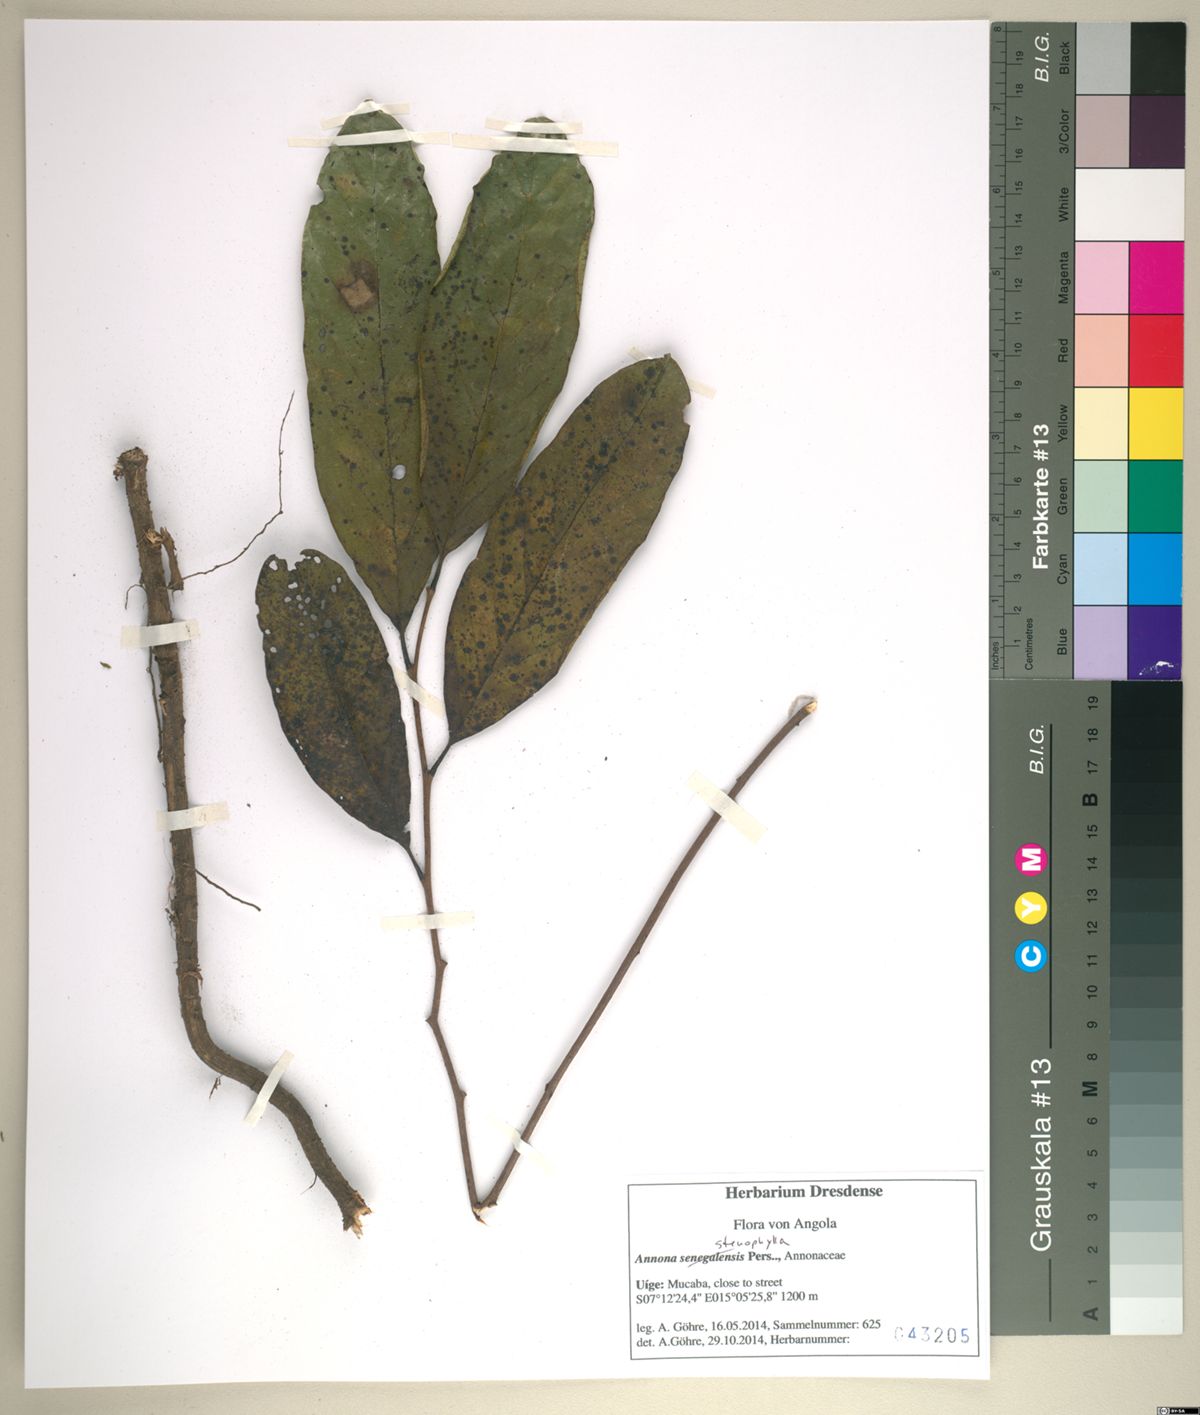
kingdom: Plantae
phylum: Tracheophyta
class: Magnoliopsida
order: Magnoliales
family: Annonaceae
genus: Annona
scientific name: Annona stenophylla
